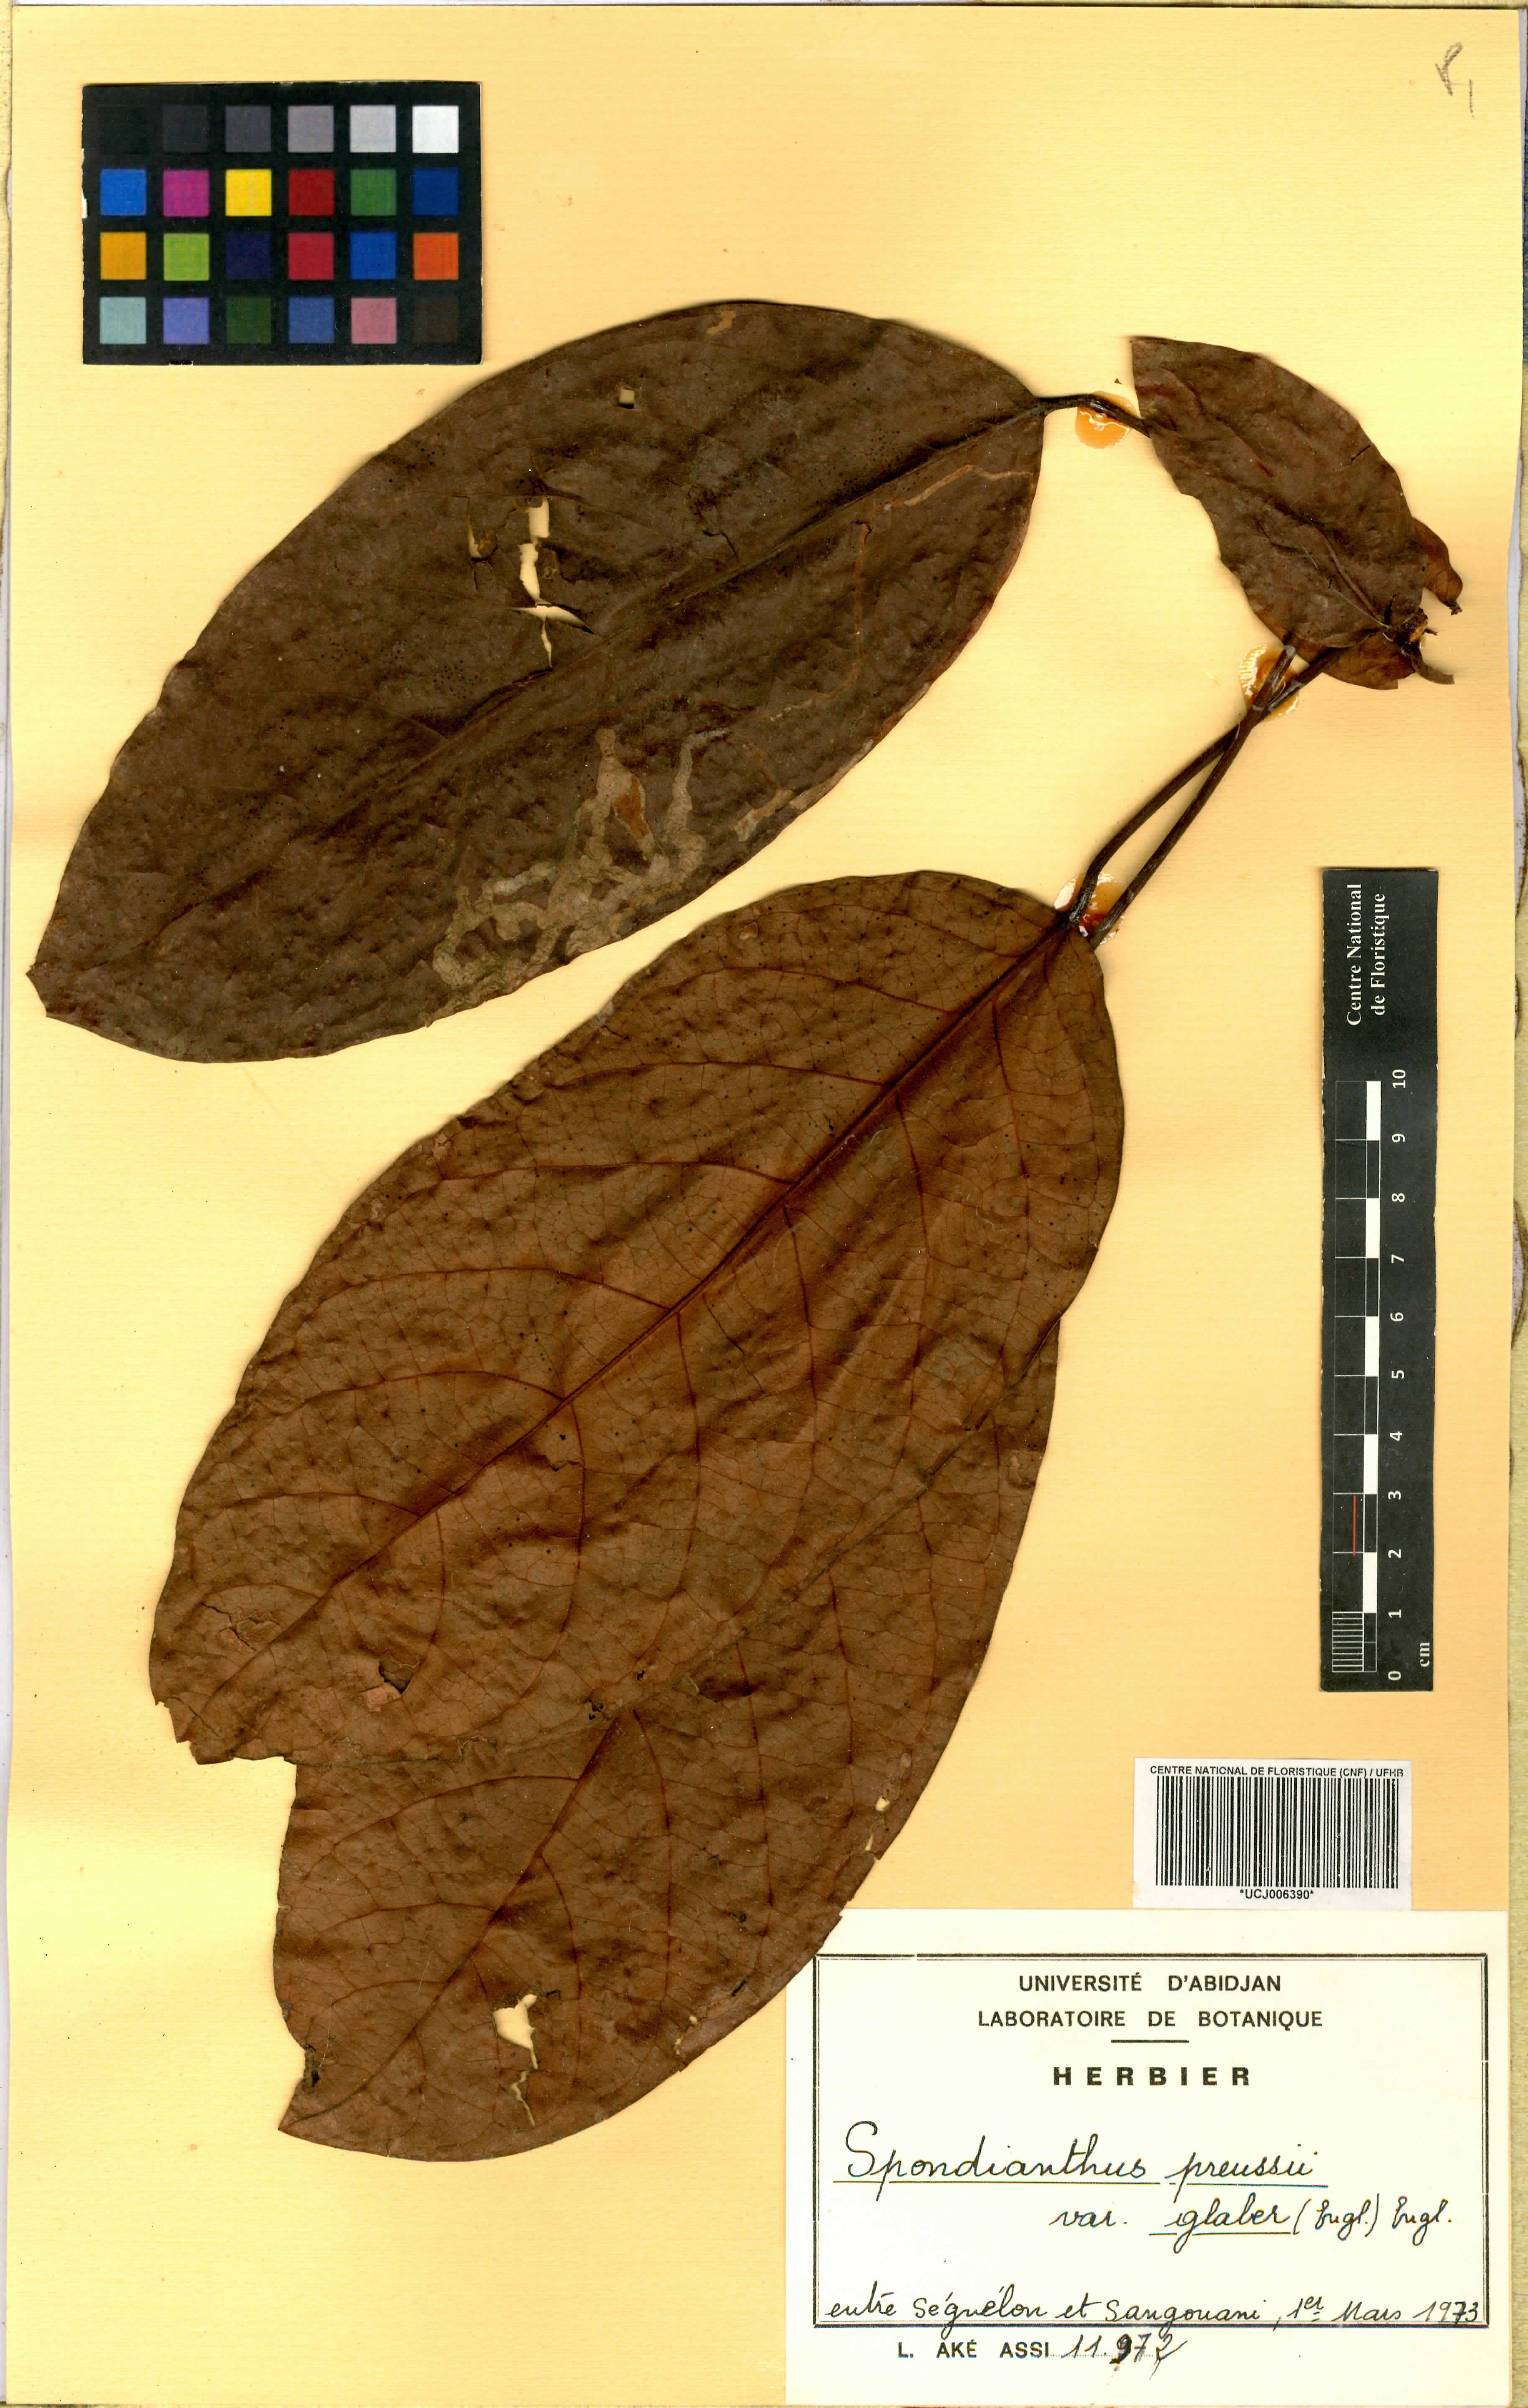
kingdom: Plantae
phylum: Tracheophyta
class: Magnoliopsida
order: Malpighiales
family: Phyllanthaceae
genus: Spondianthus
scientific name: Spondianthus preussii
